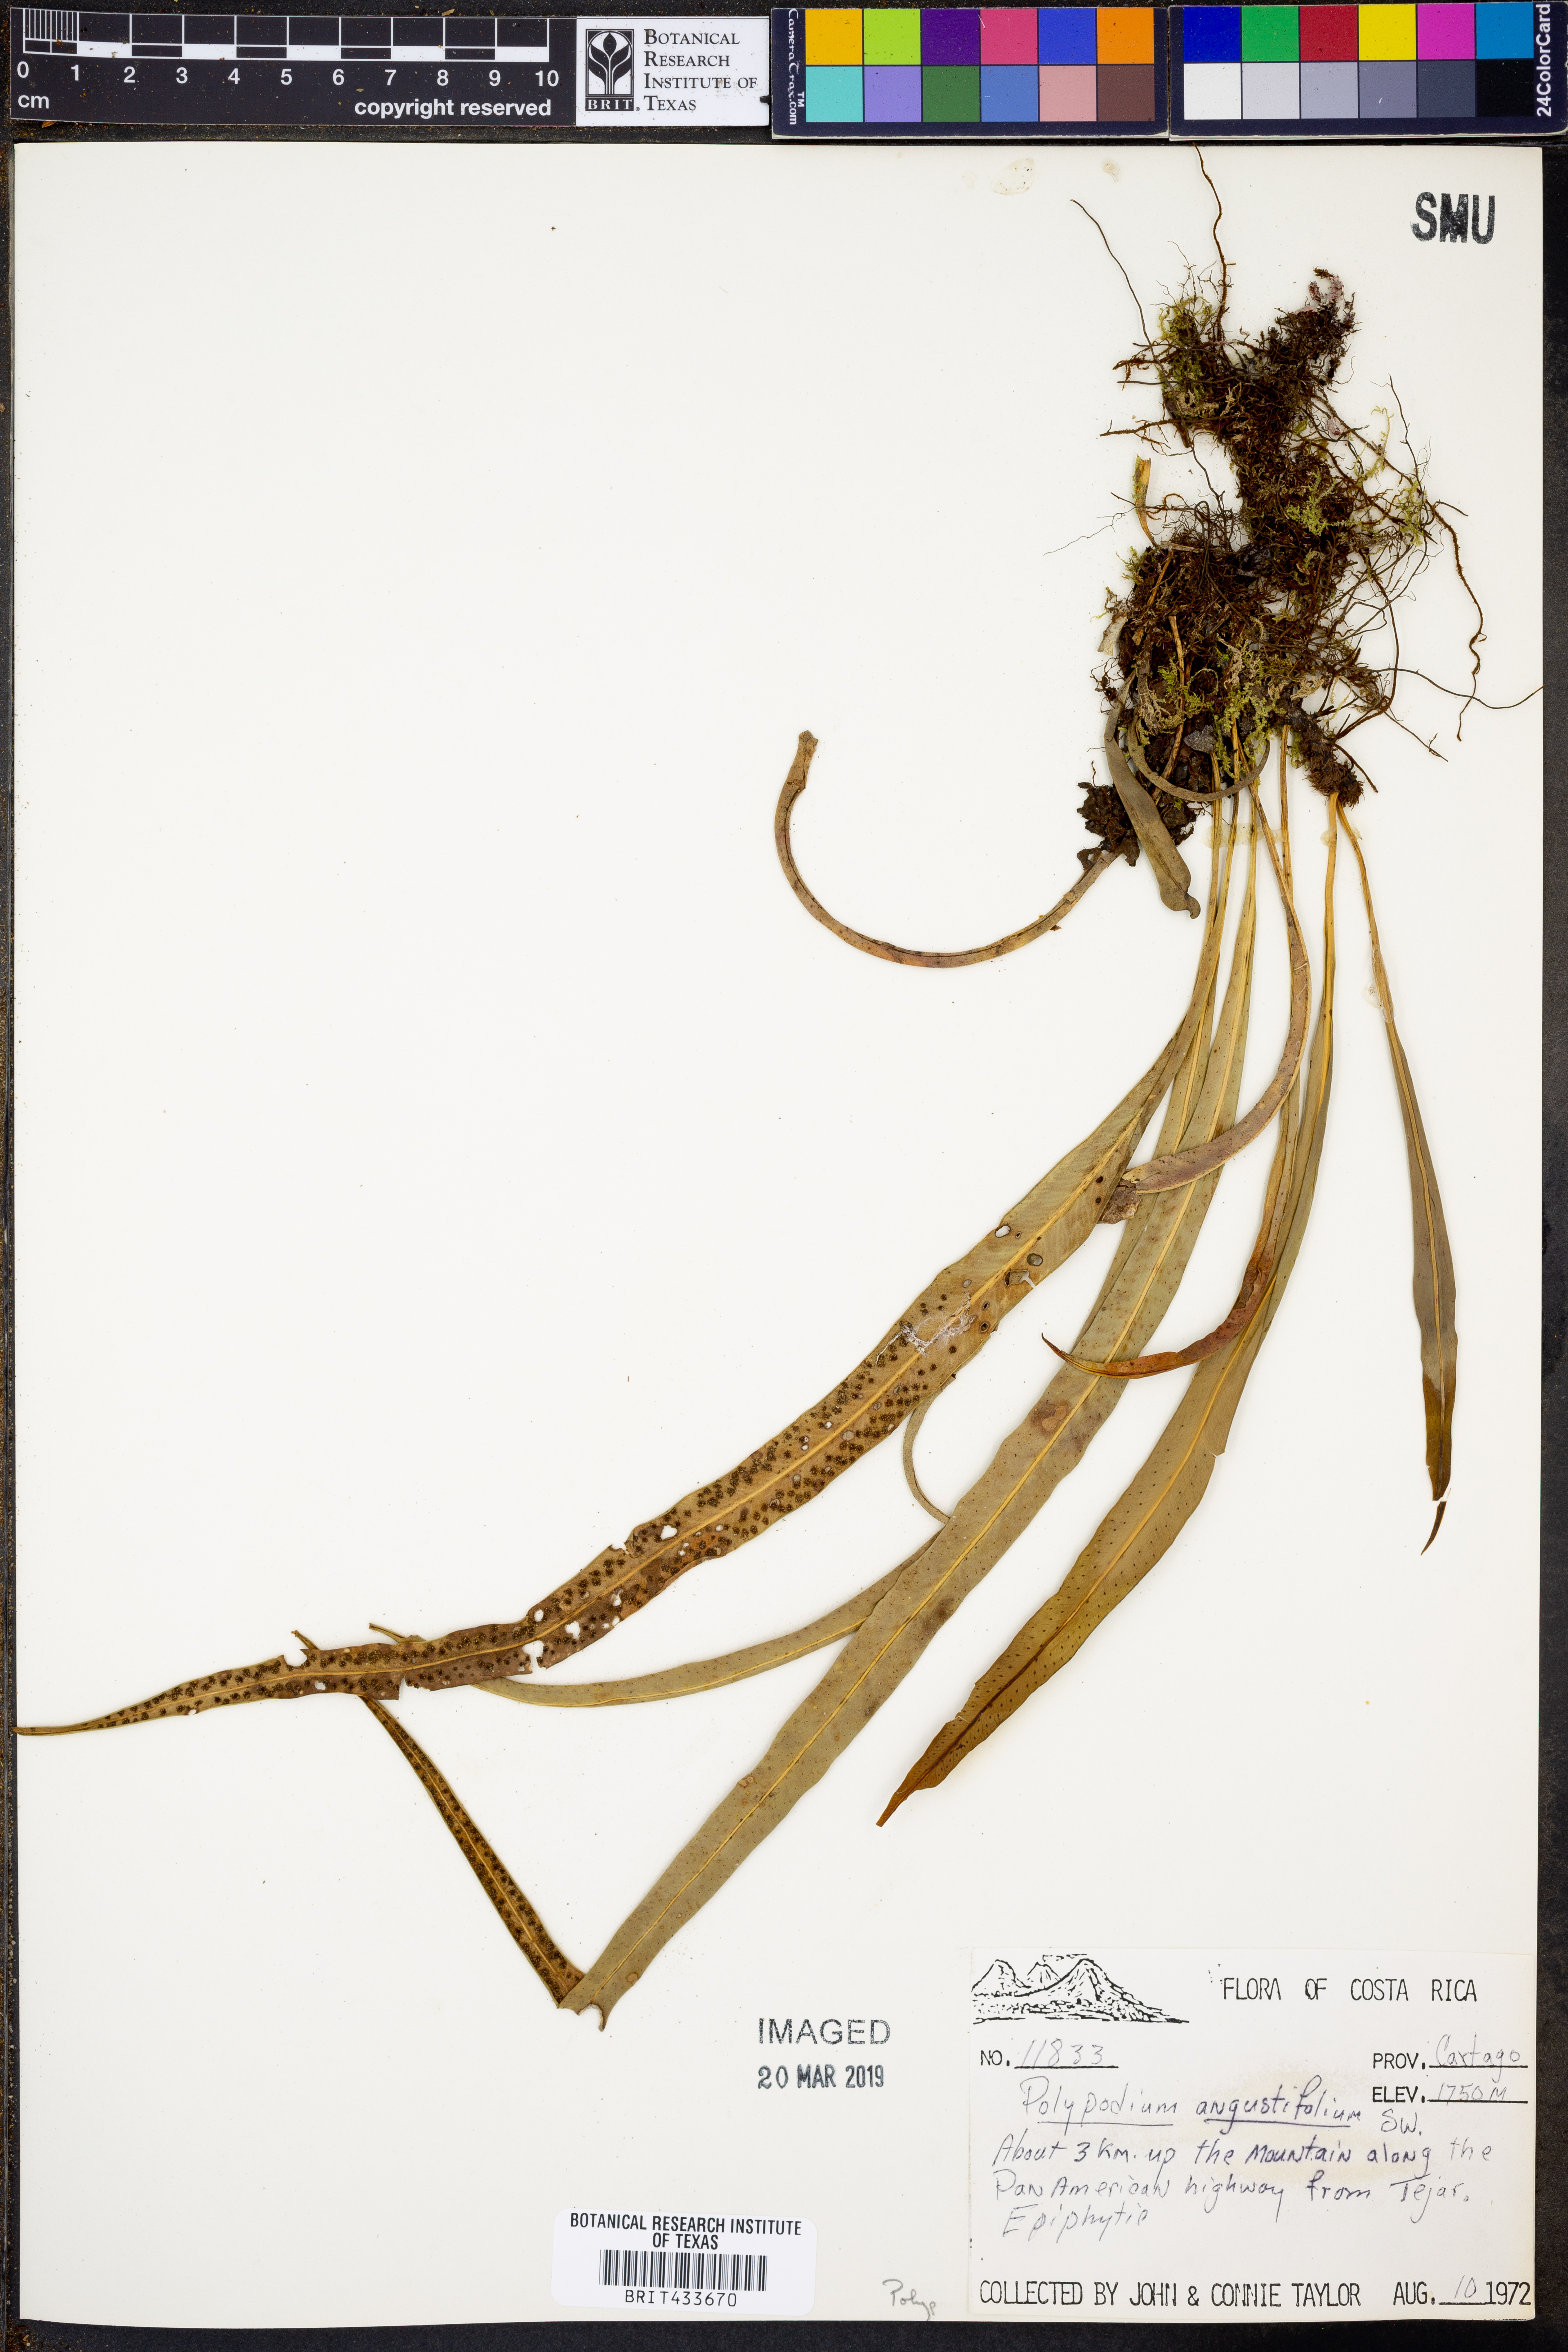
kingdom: Plantae
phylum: Tracheophyta
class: Polypodiopsida
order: Polypodiales
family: Polypodiaceae
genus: Campyloneurum
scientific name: Campyloneurum angustifolium
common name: Narrow-leaf strap fern
